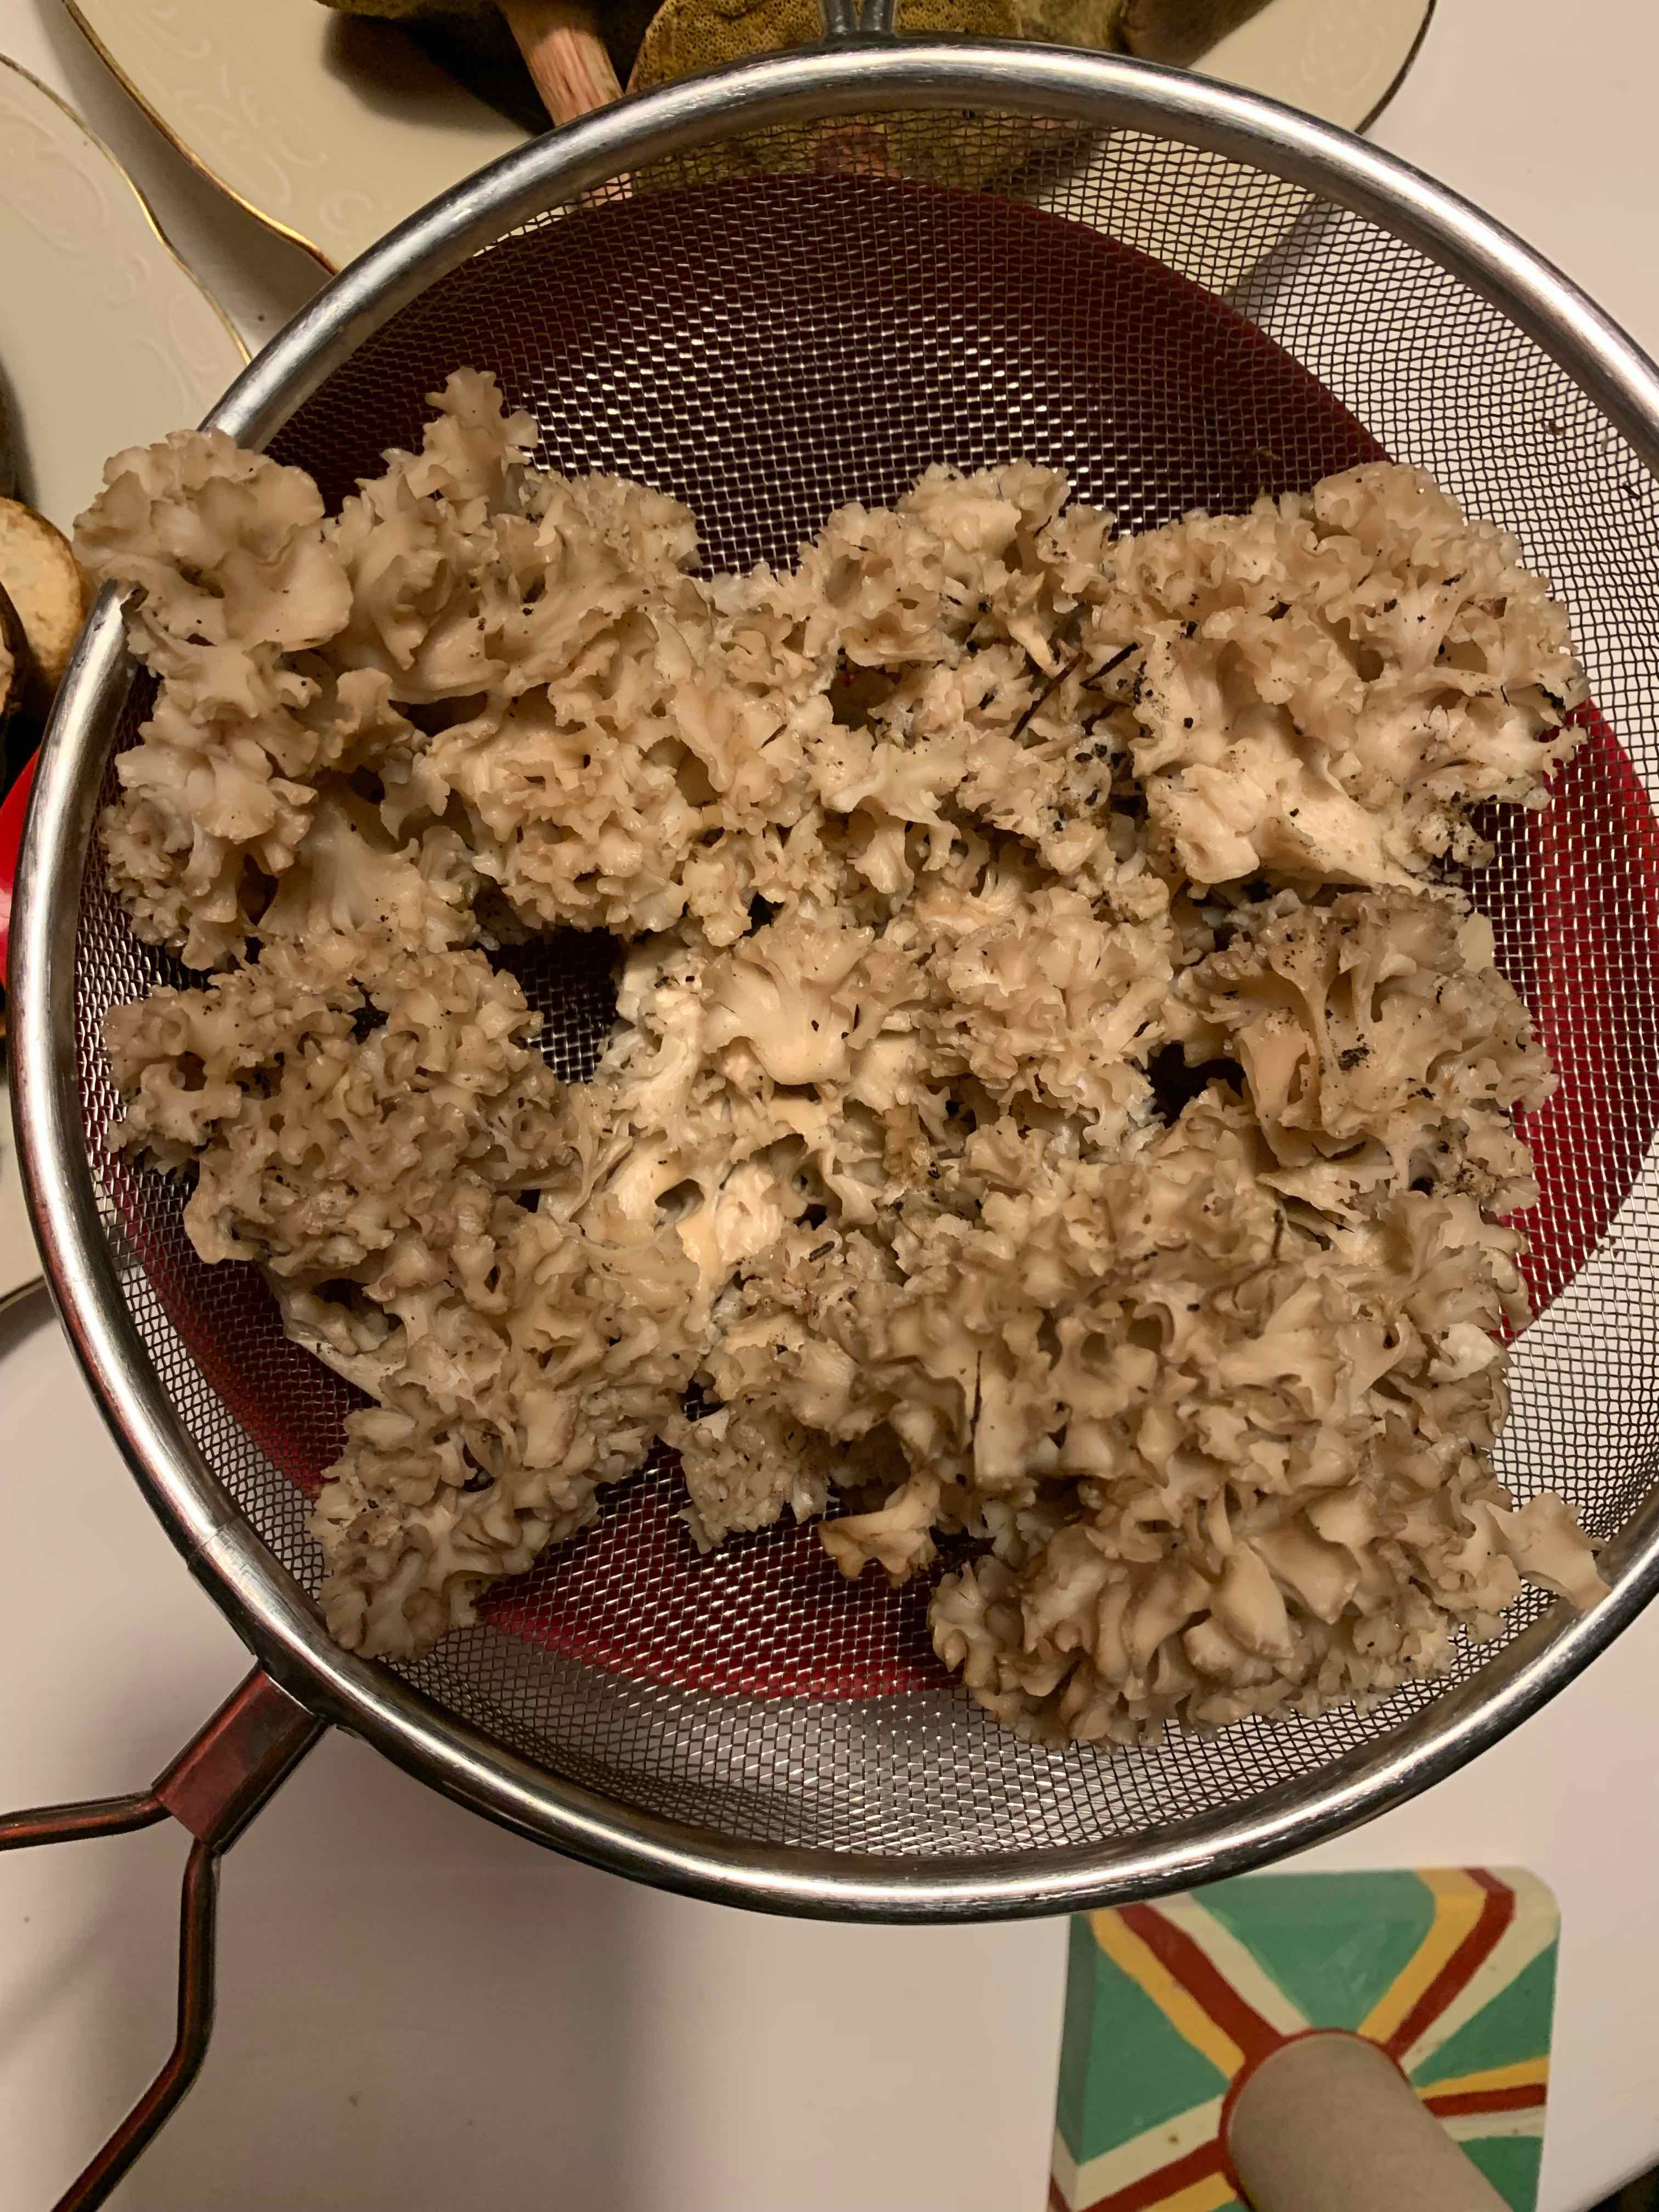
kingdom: Fungi
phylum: Basidiomycota
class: Agaricomycetes
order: Polyporales
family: Sparassidaceae
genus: Sparassis
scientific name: Sparassis crispa
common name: kruset blomkålssvamp
